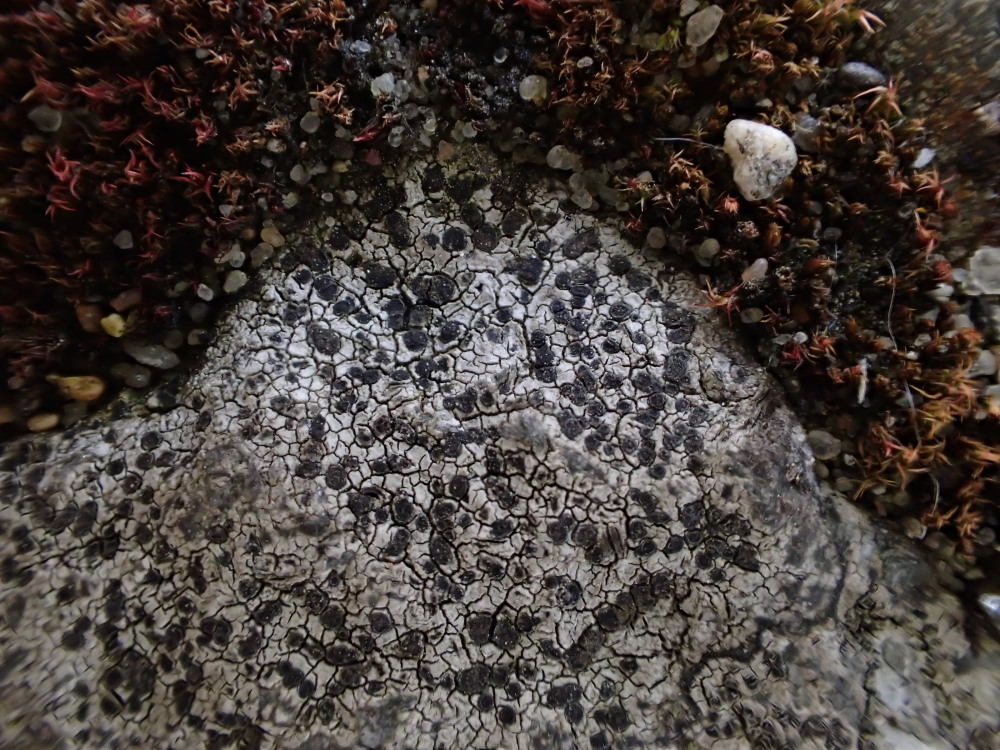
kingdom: Fungi
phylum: Ascomycota
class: Lecanoromycetes
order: Rhizocarpales
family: Rhizocarpaceae
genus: Rhizocarpon
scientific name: Rhizocarpon reductum
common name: mørk landkortlav
